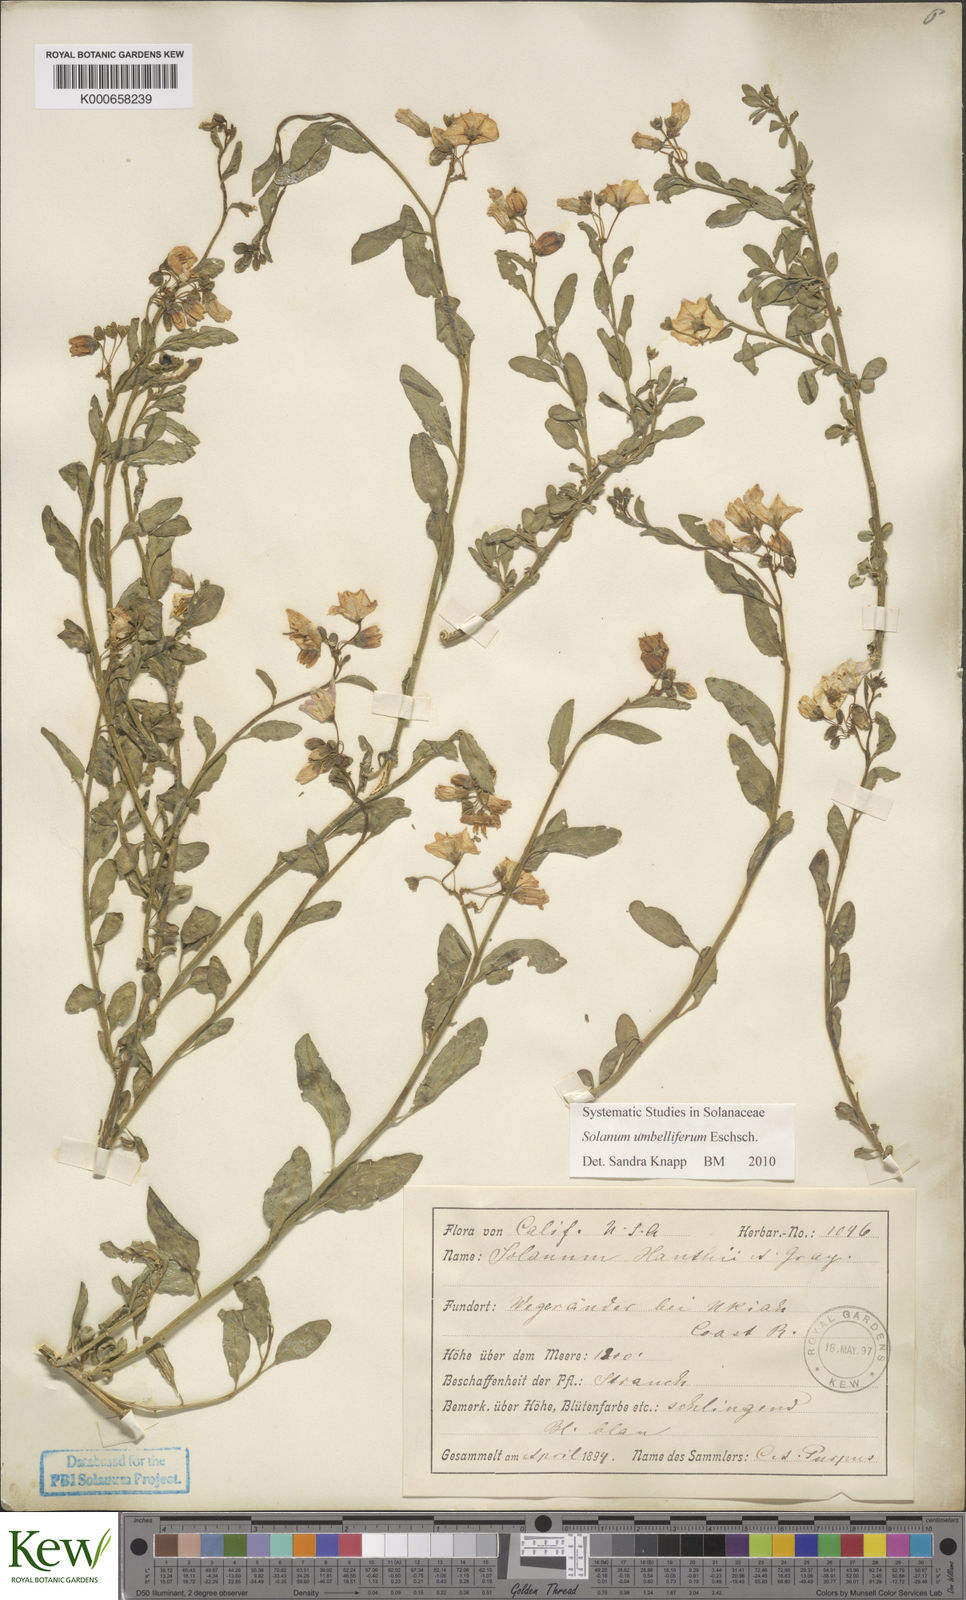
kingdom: Plantae
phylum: Tracheophyta
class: Magnoliopsida
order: Solanales
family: Solanaceae
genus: Solanum
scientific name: Solanum umbelliferum
